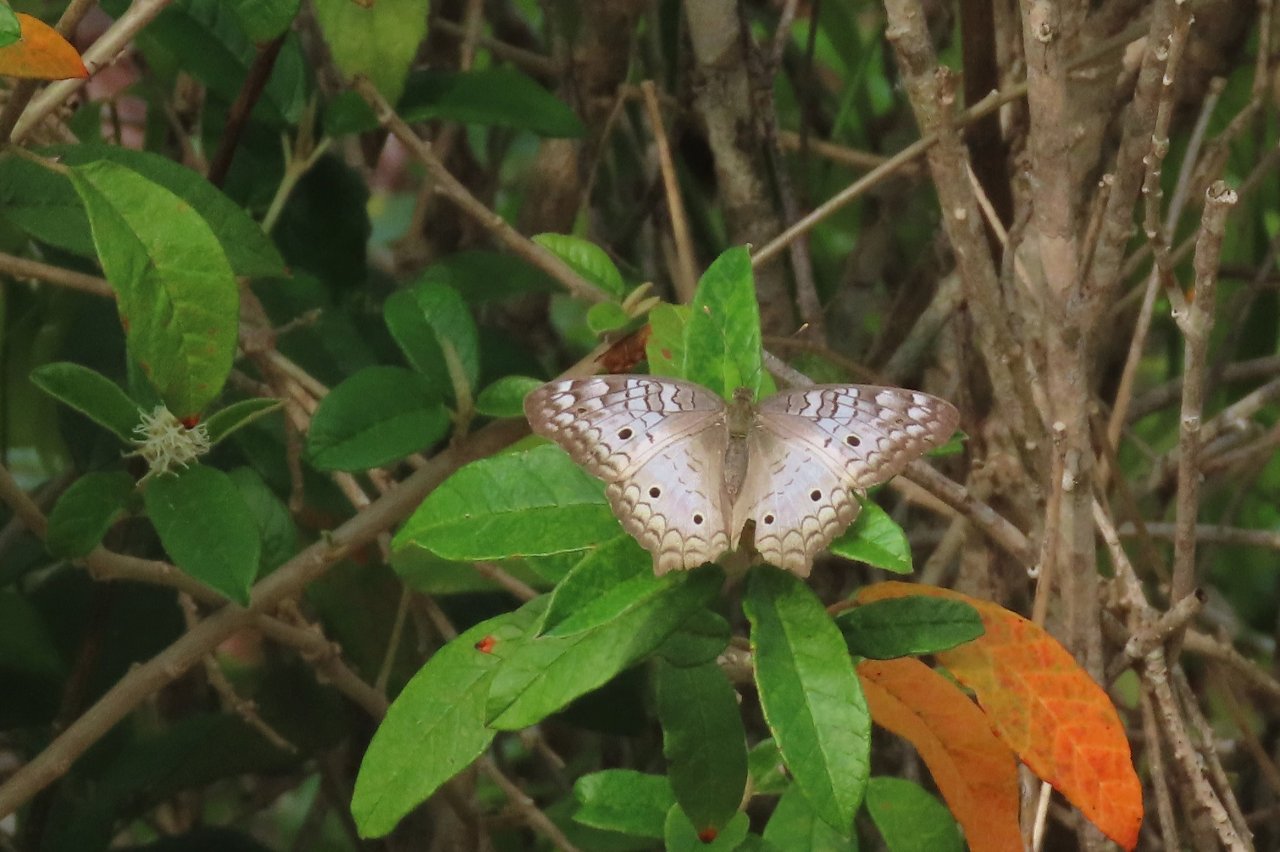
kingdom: Animalia
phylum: Arthropoda
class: Insecta
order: Lepidoptera
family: Nymphalidae
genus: Anartia
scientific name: Anartia jatrophae
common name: White Peacock
